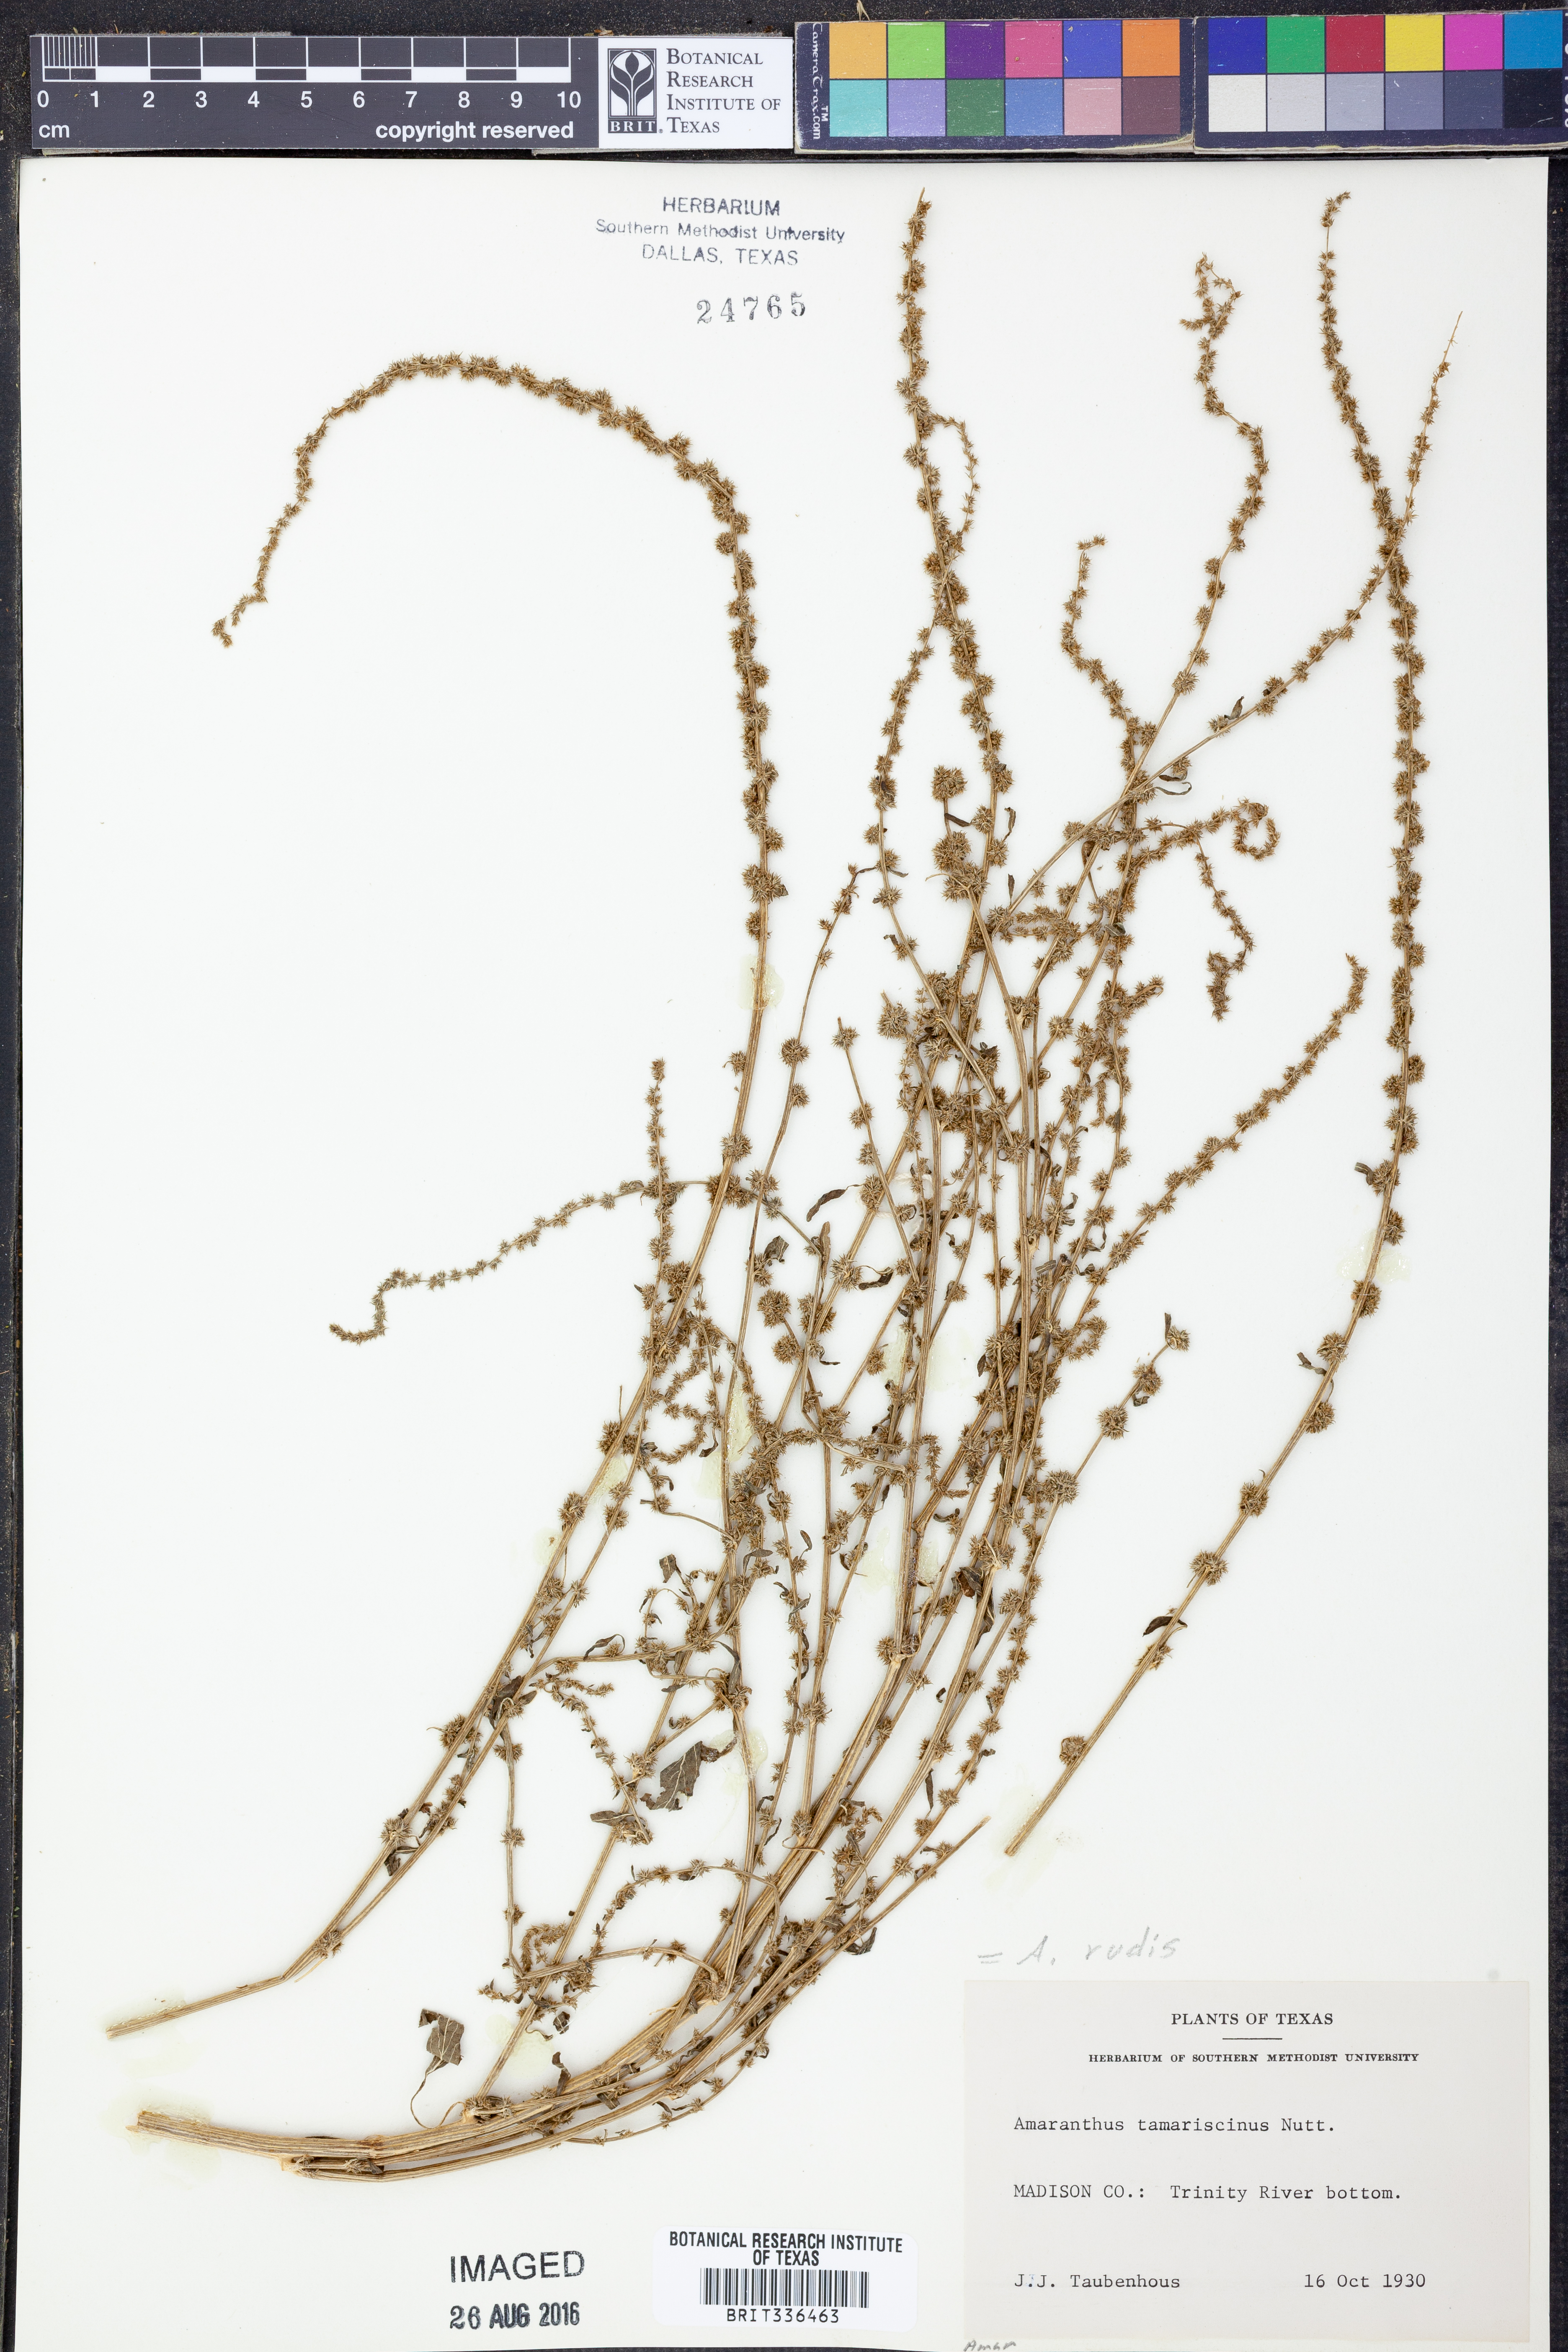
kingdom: Plantae
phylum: Tracheophyta
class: Magnoliopsida
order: Caryophyllales
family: Amaranthaceae
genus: Amaranthus
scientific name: Amaranthus tuberculatus
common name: Rough-fruit amaranth
